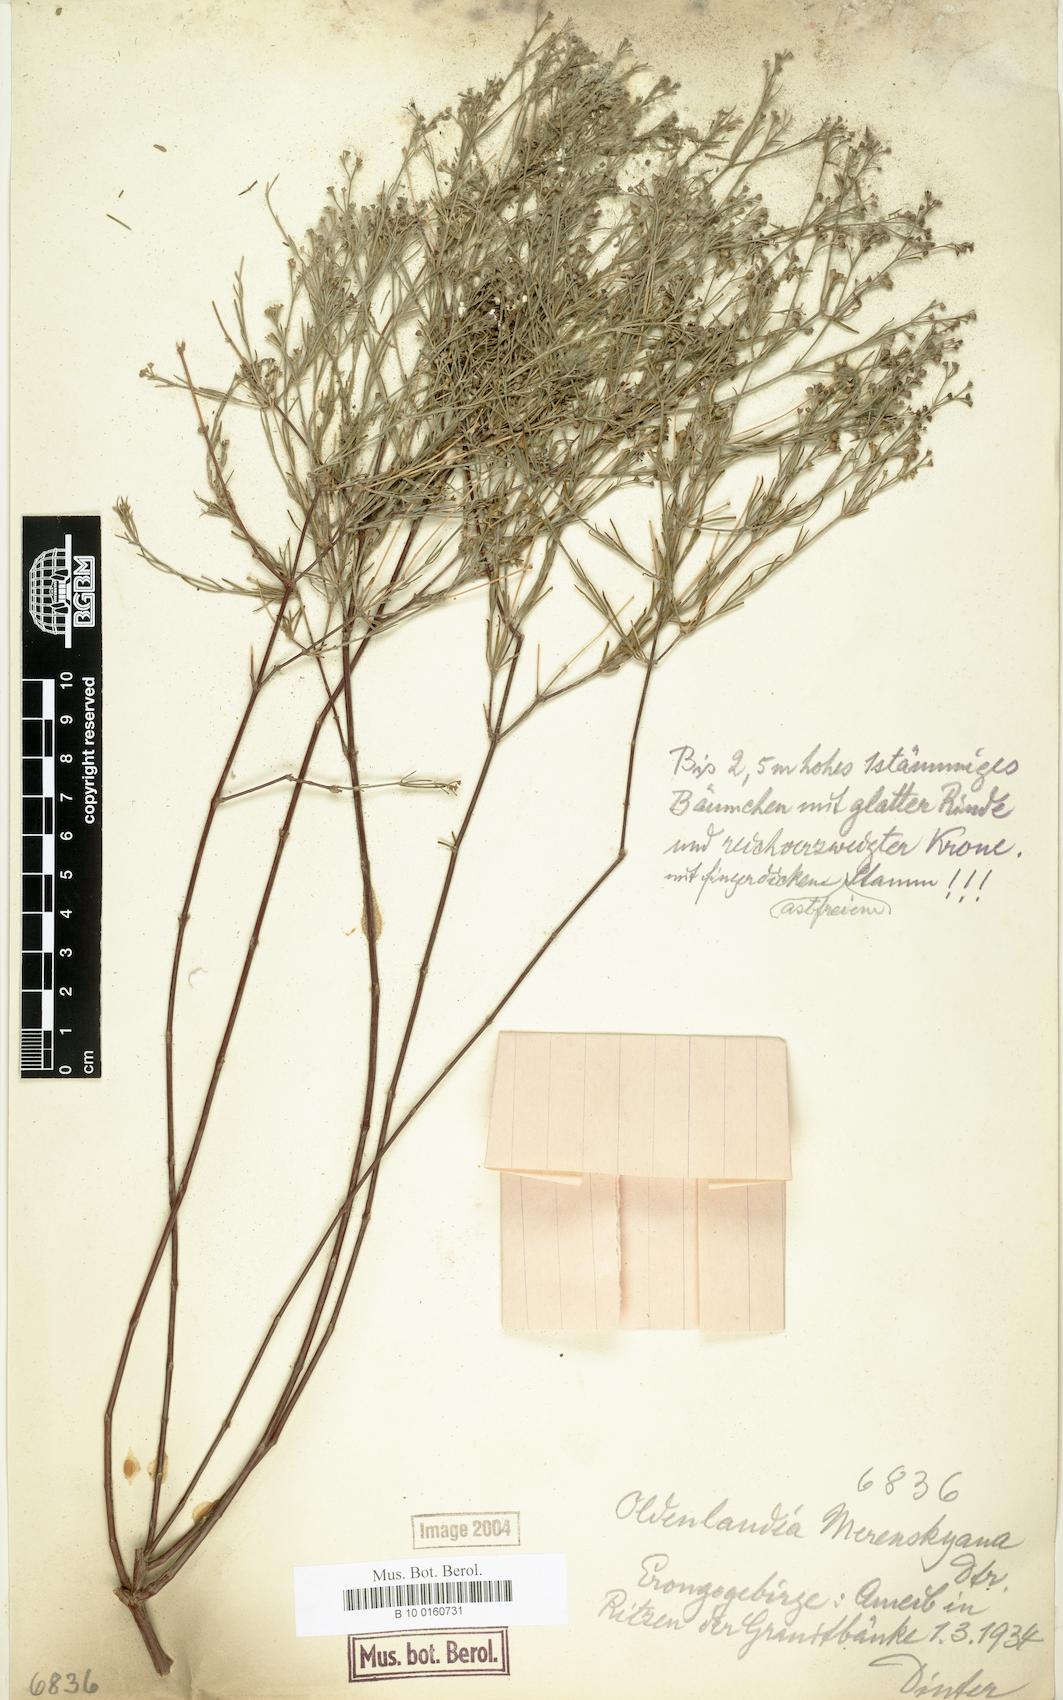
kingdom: Plantae
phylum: Tracheophyta
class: Magnoliopsida
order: Gentianales
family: Rubiaceae
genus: Amphiasma
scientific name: Amphiasma merenskyanum
